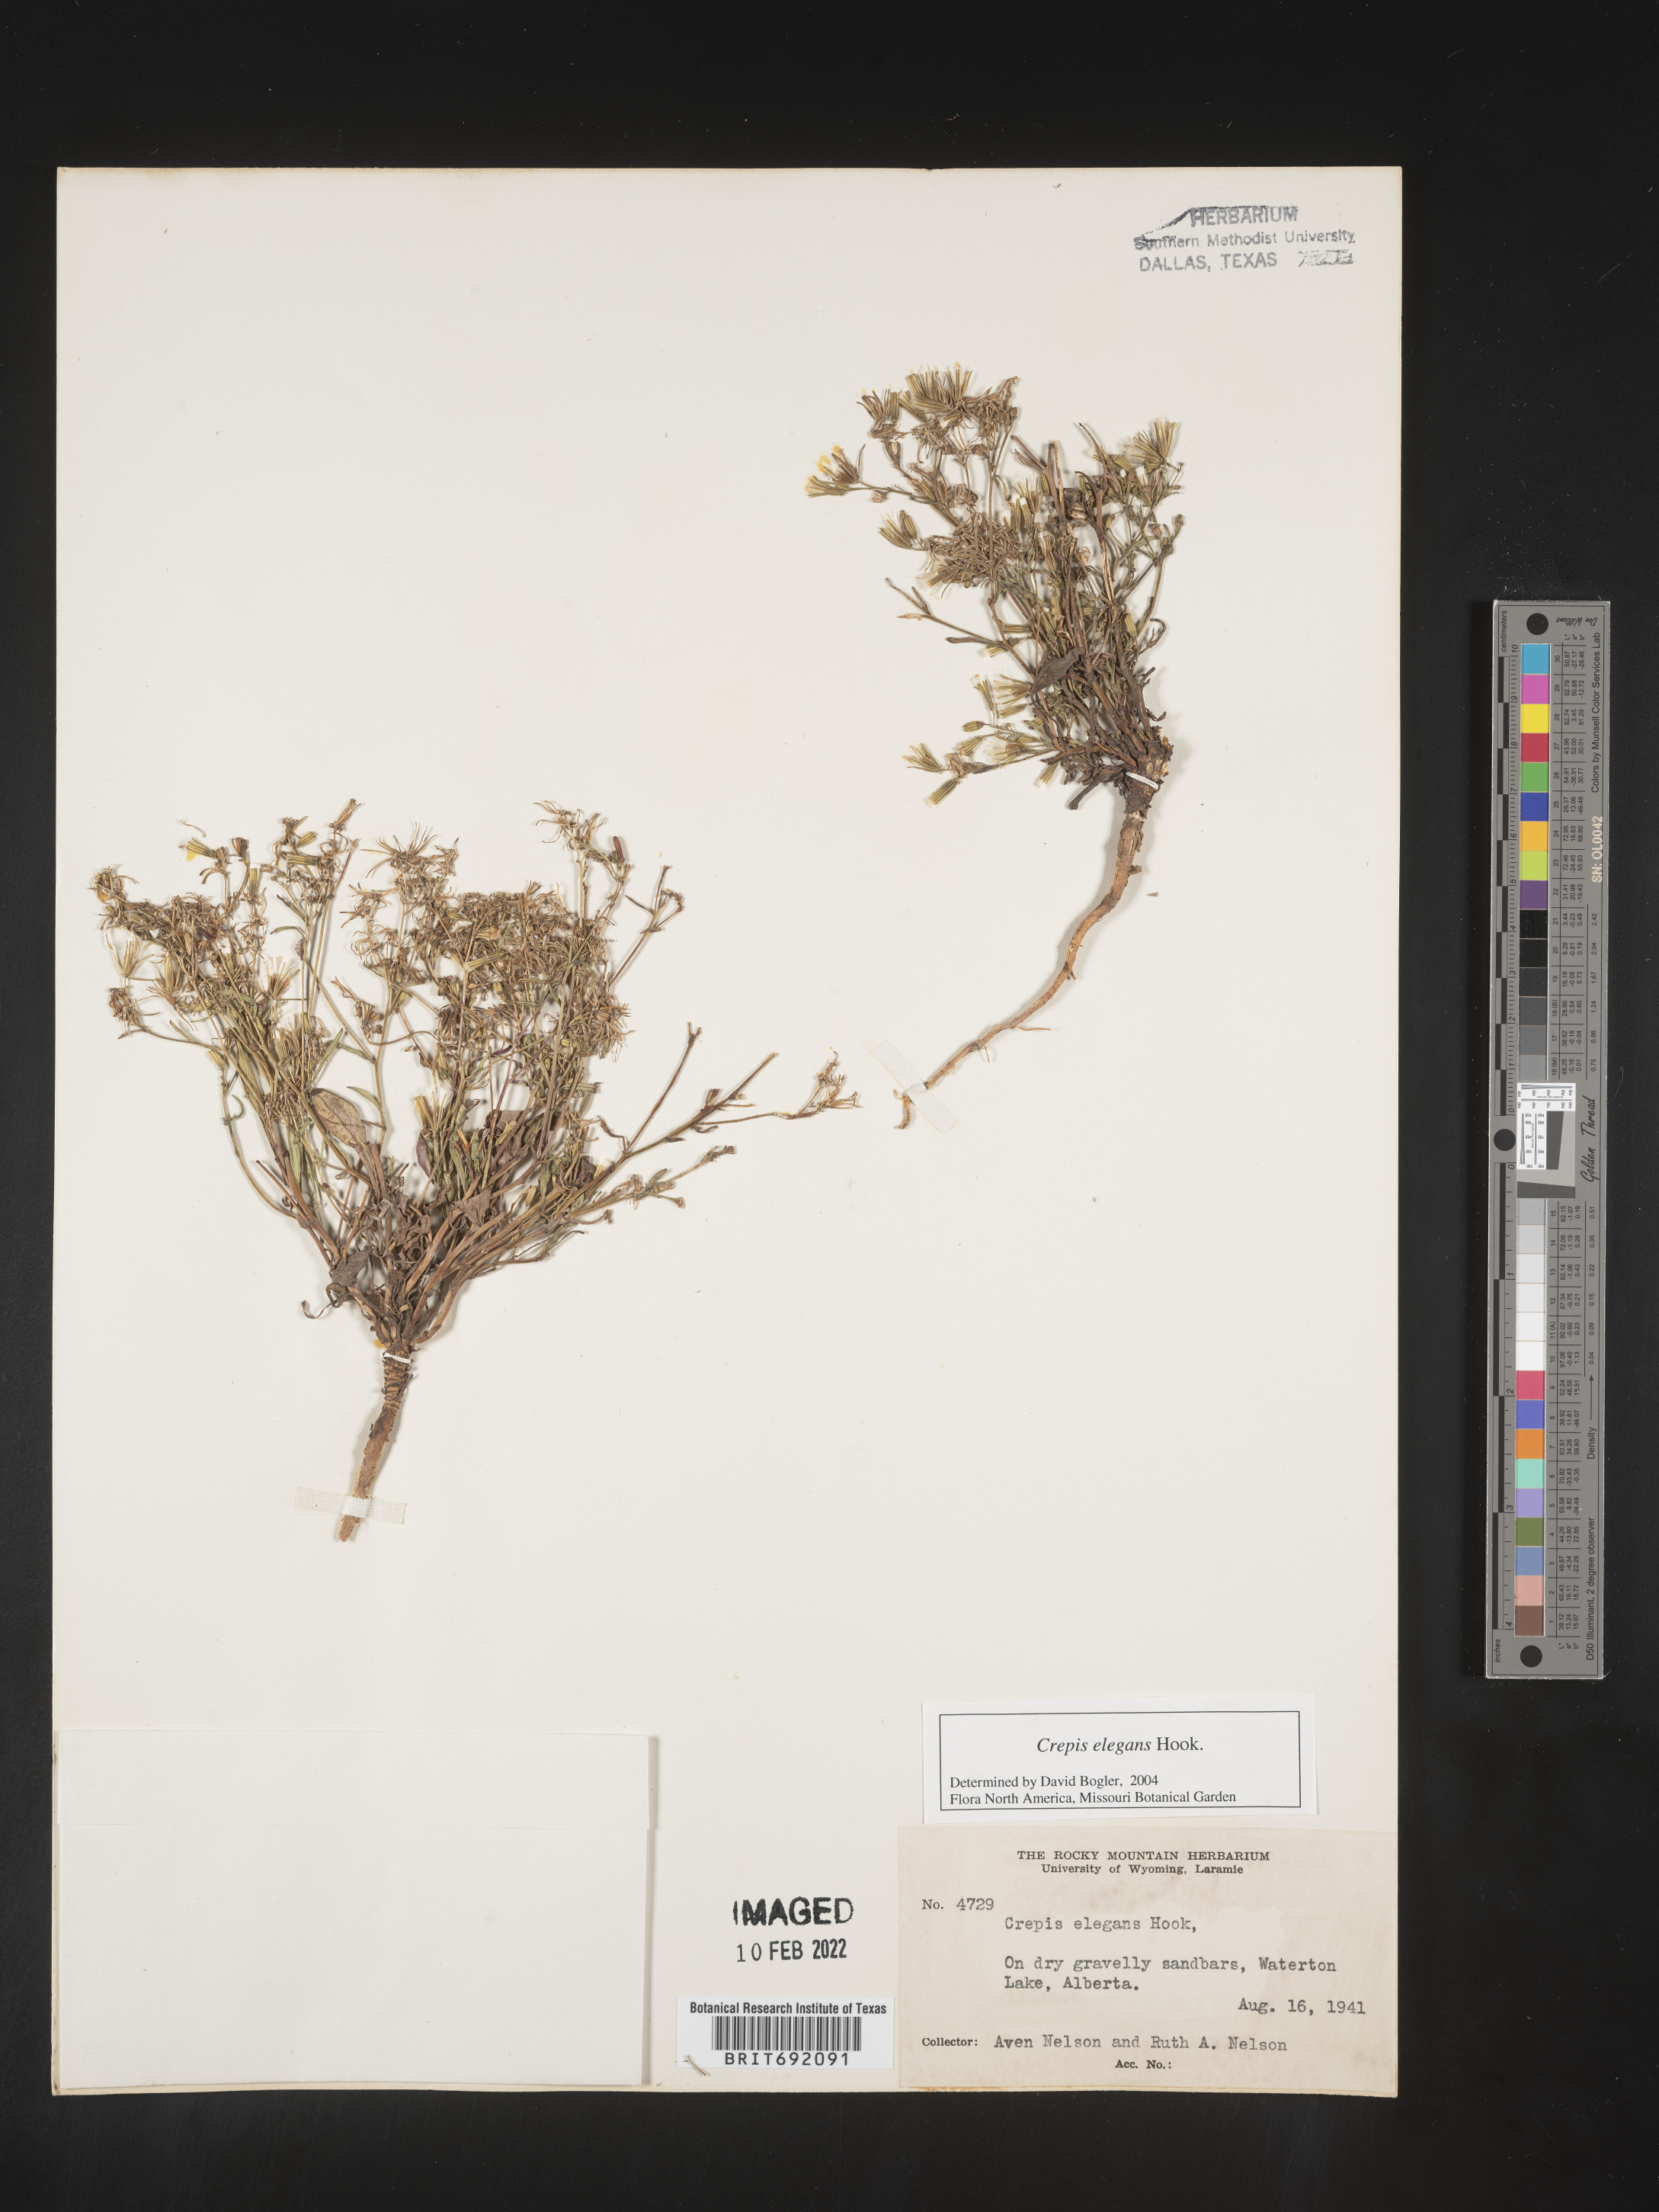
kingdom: Plantae
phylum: Tracheophyta
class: Magnoliopsida
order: Asterales
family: Asteraceae
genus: Crepis
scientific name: Crepis
